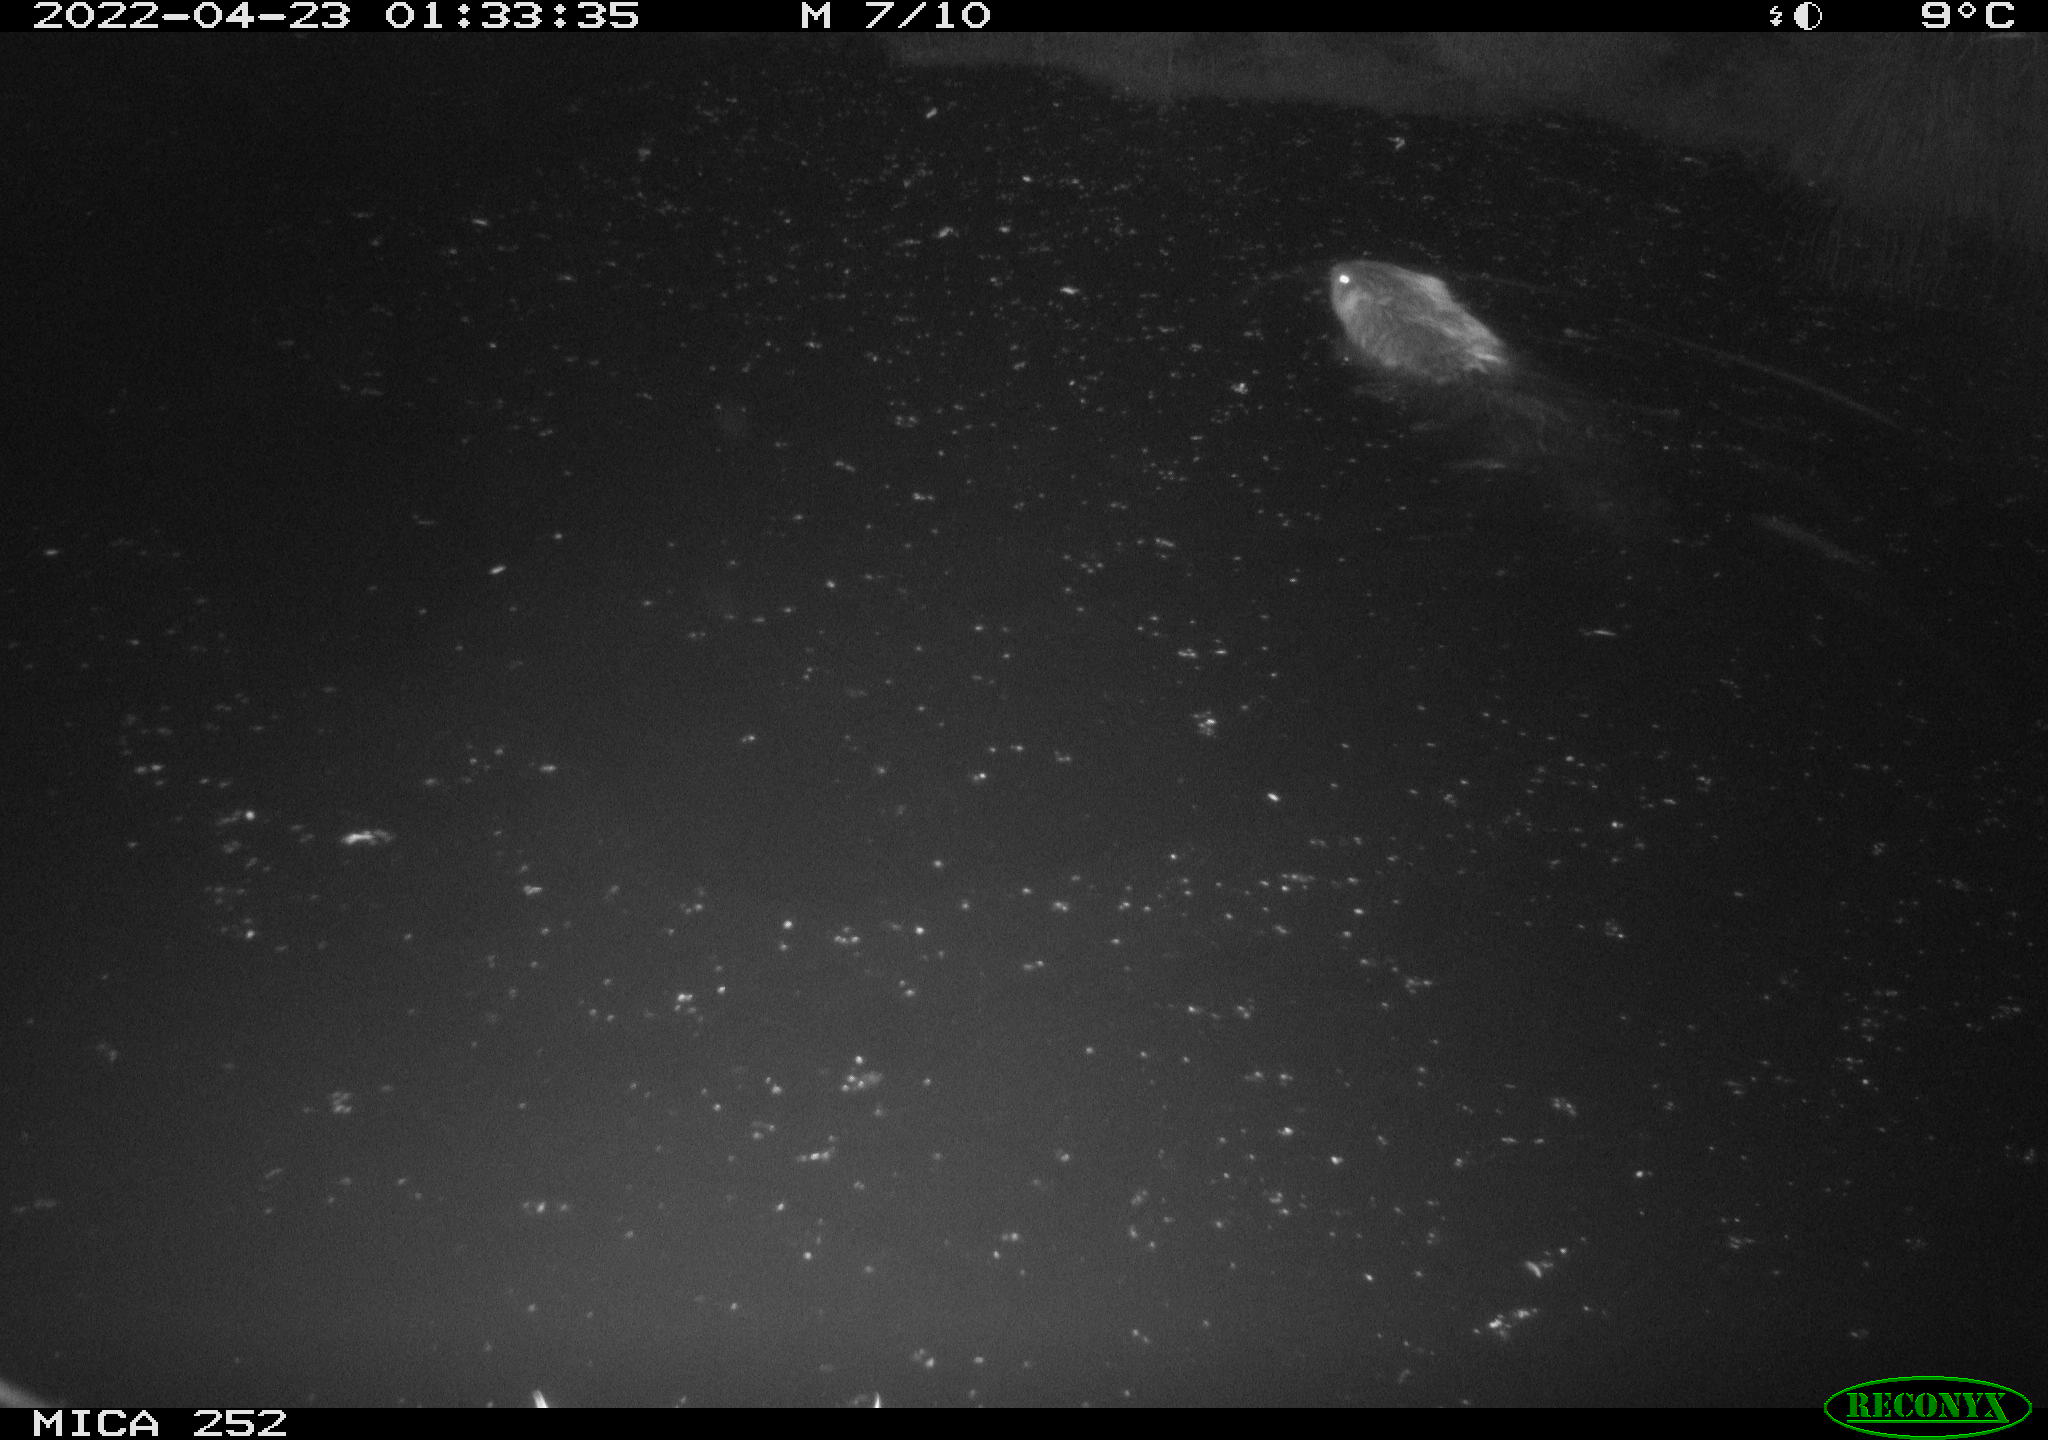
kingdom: Animalia
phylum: Chordata
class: Mammalia
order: Rodentia
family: Castoridae
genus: Castor
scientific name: Castor fiber
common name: Eurasian beaver
